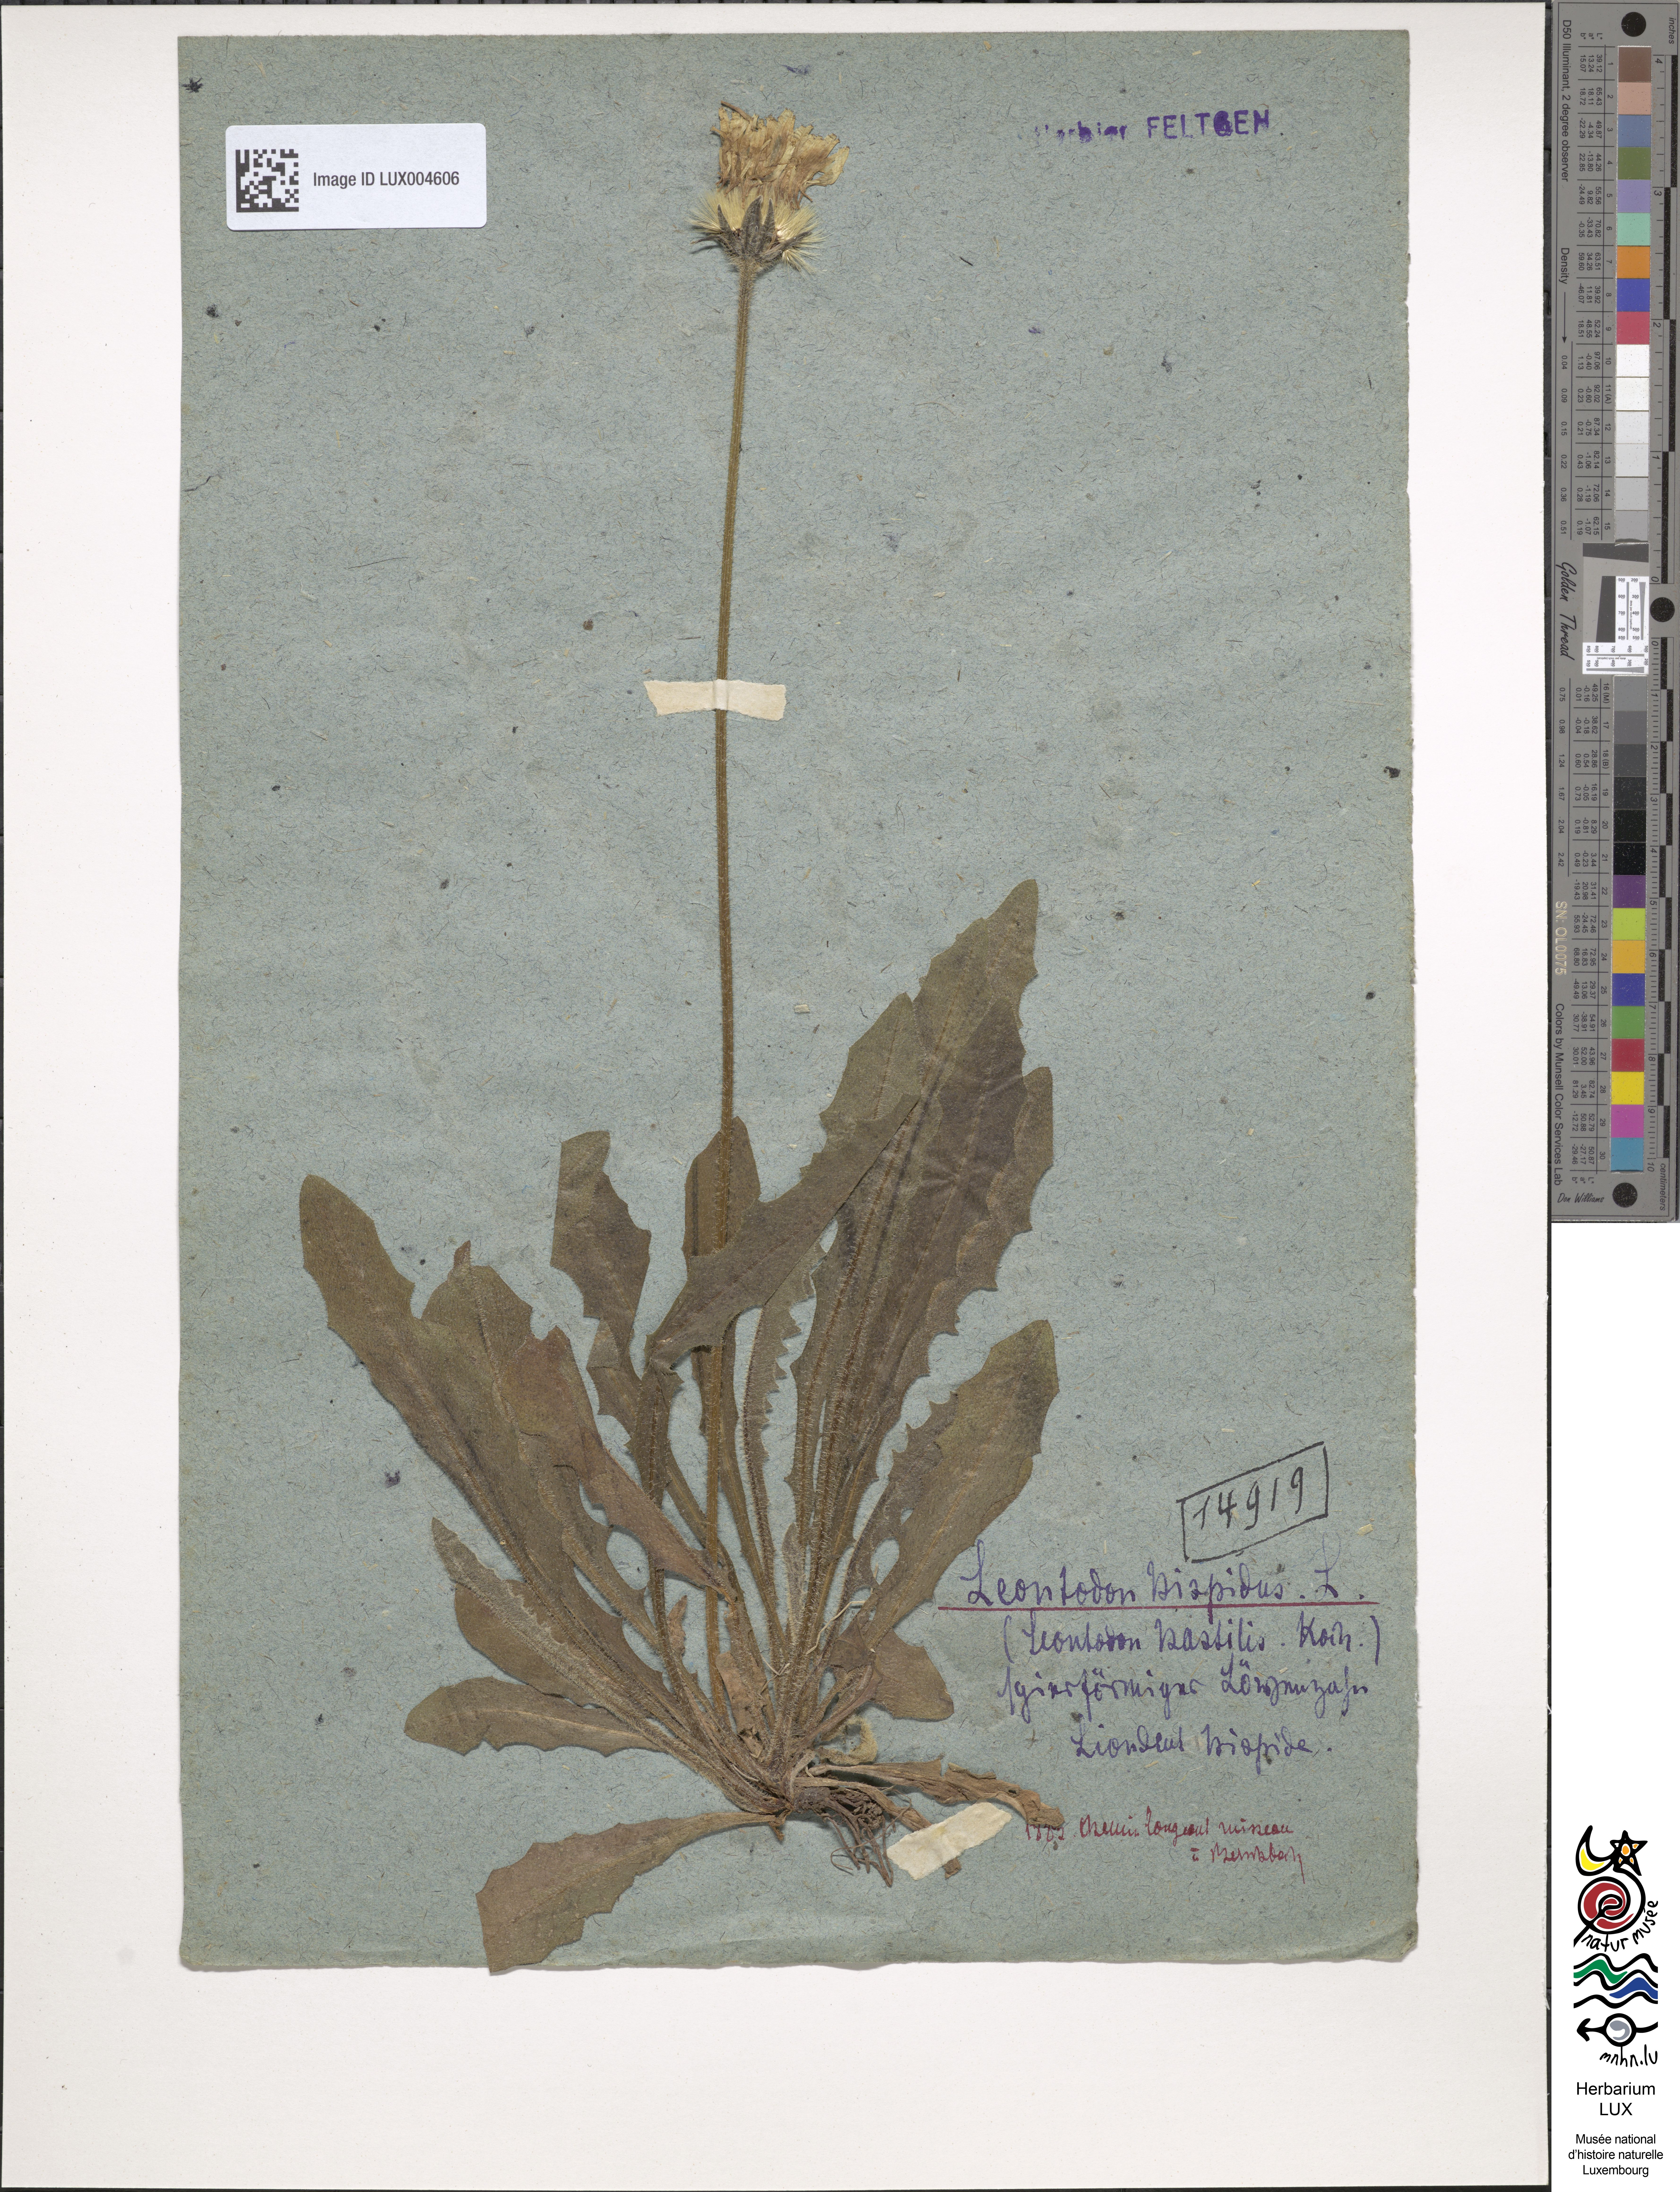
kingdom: Plantae
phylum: Tracheophyta
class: Magnoliopsida
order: Asterales
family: Asteraceae
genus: Leontodon
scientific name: Leontodon hispidus
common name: Rough hawkbit
